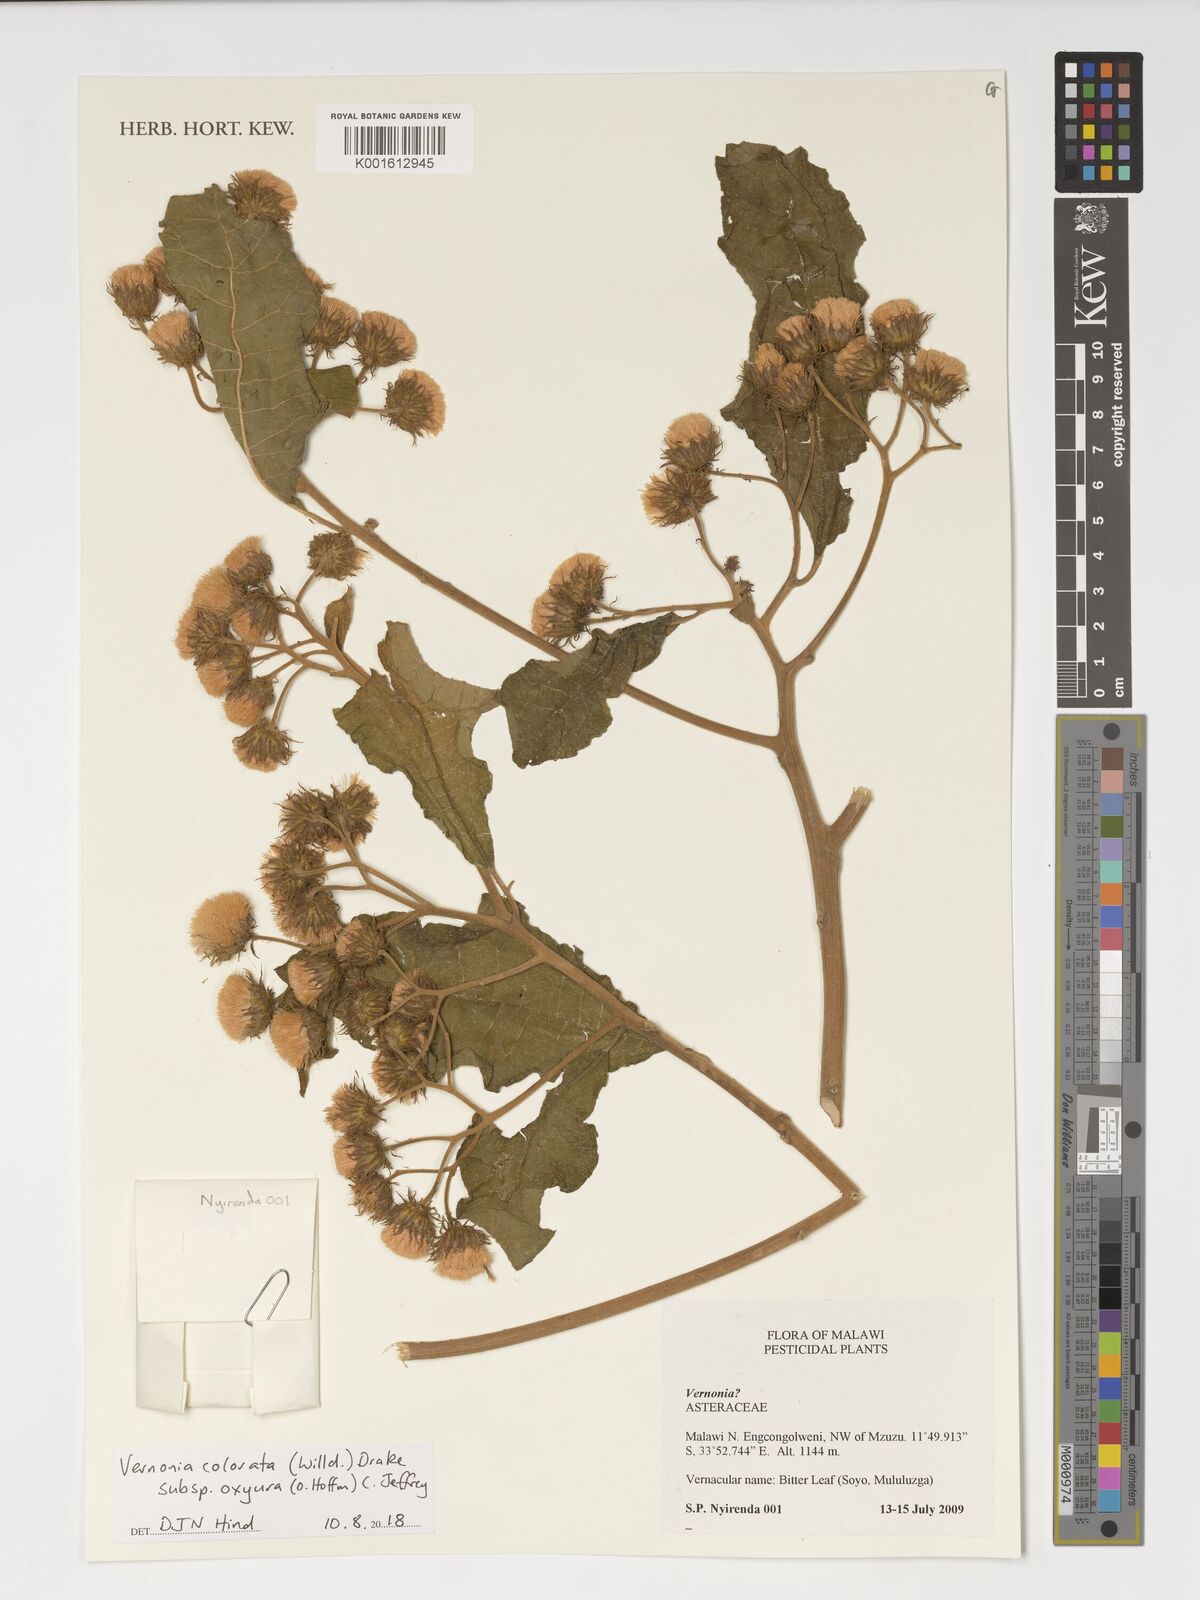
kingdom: Plantae
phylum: Tracheophyta
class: Magnoliopsida
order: Asterales
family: Asteraceae
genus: Vernonia
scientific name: Vernonia colorata
